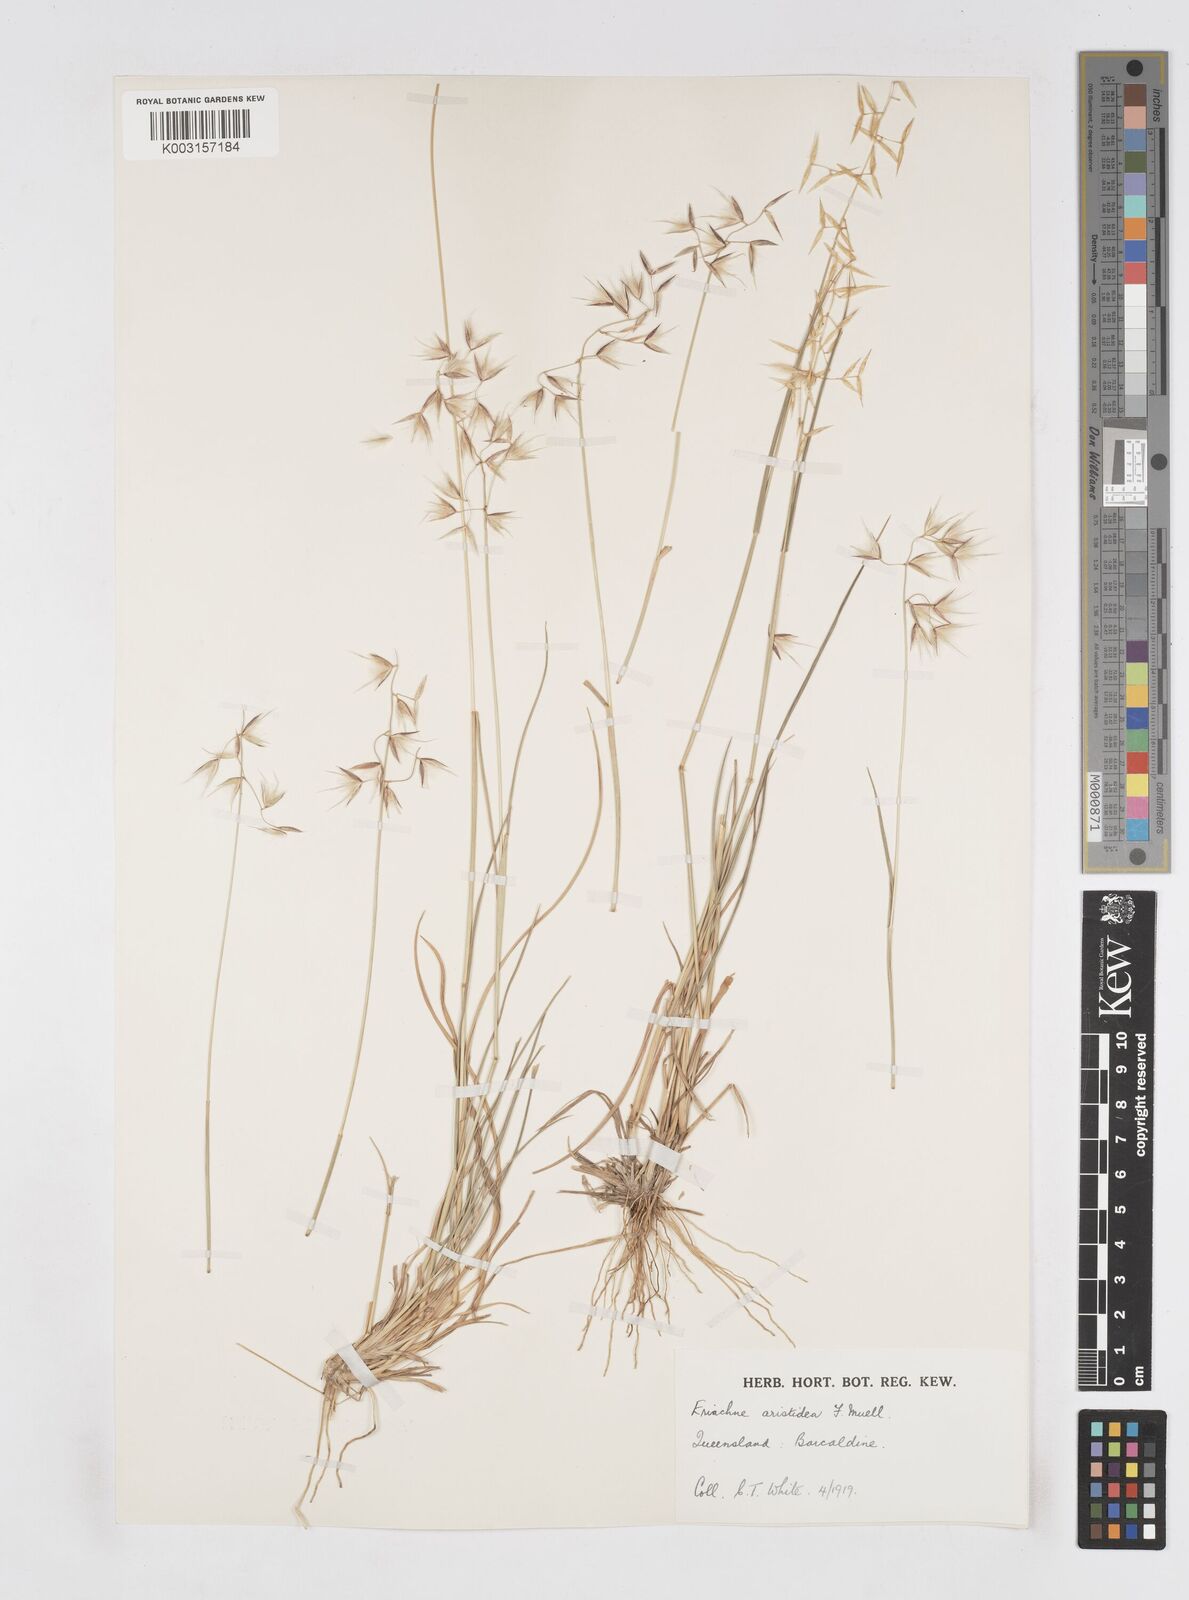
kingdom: Plantae
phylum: Tracheophyta
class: Liliopsida
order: Poales
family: Poaceae
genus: Eriachne
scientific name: Eriachne aristidea
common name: Three-awn wanderrie grass
